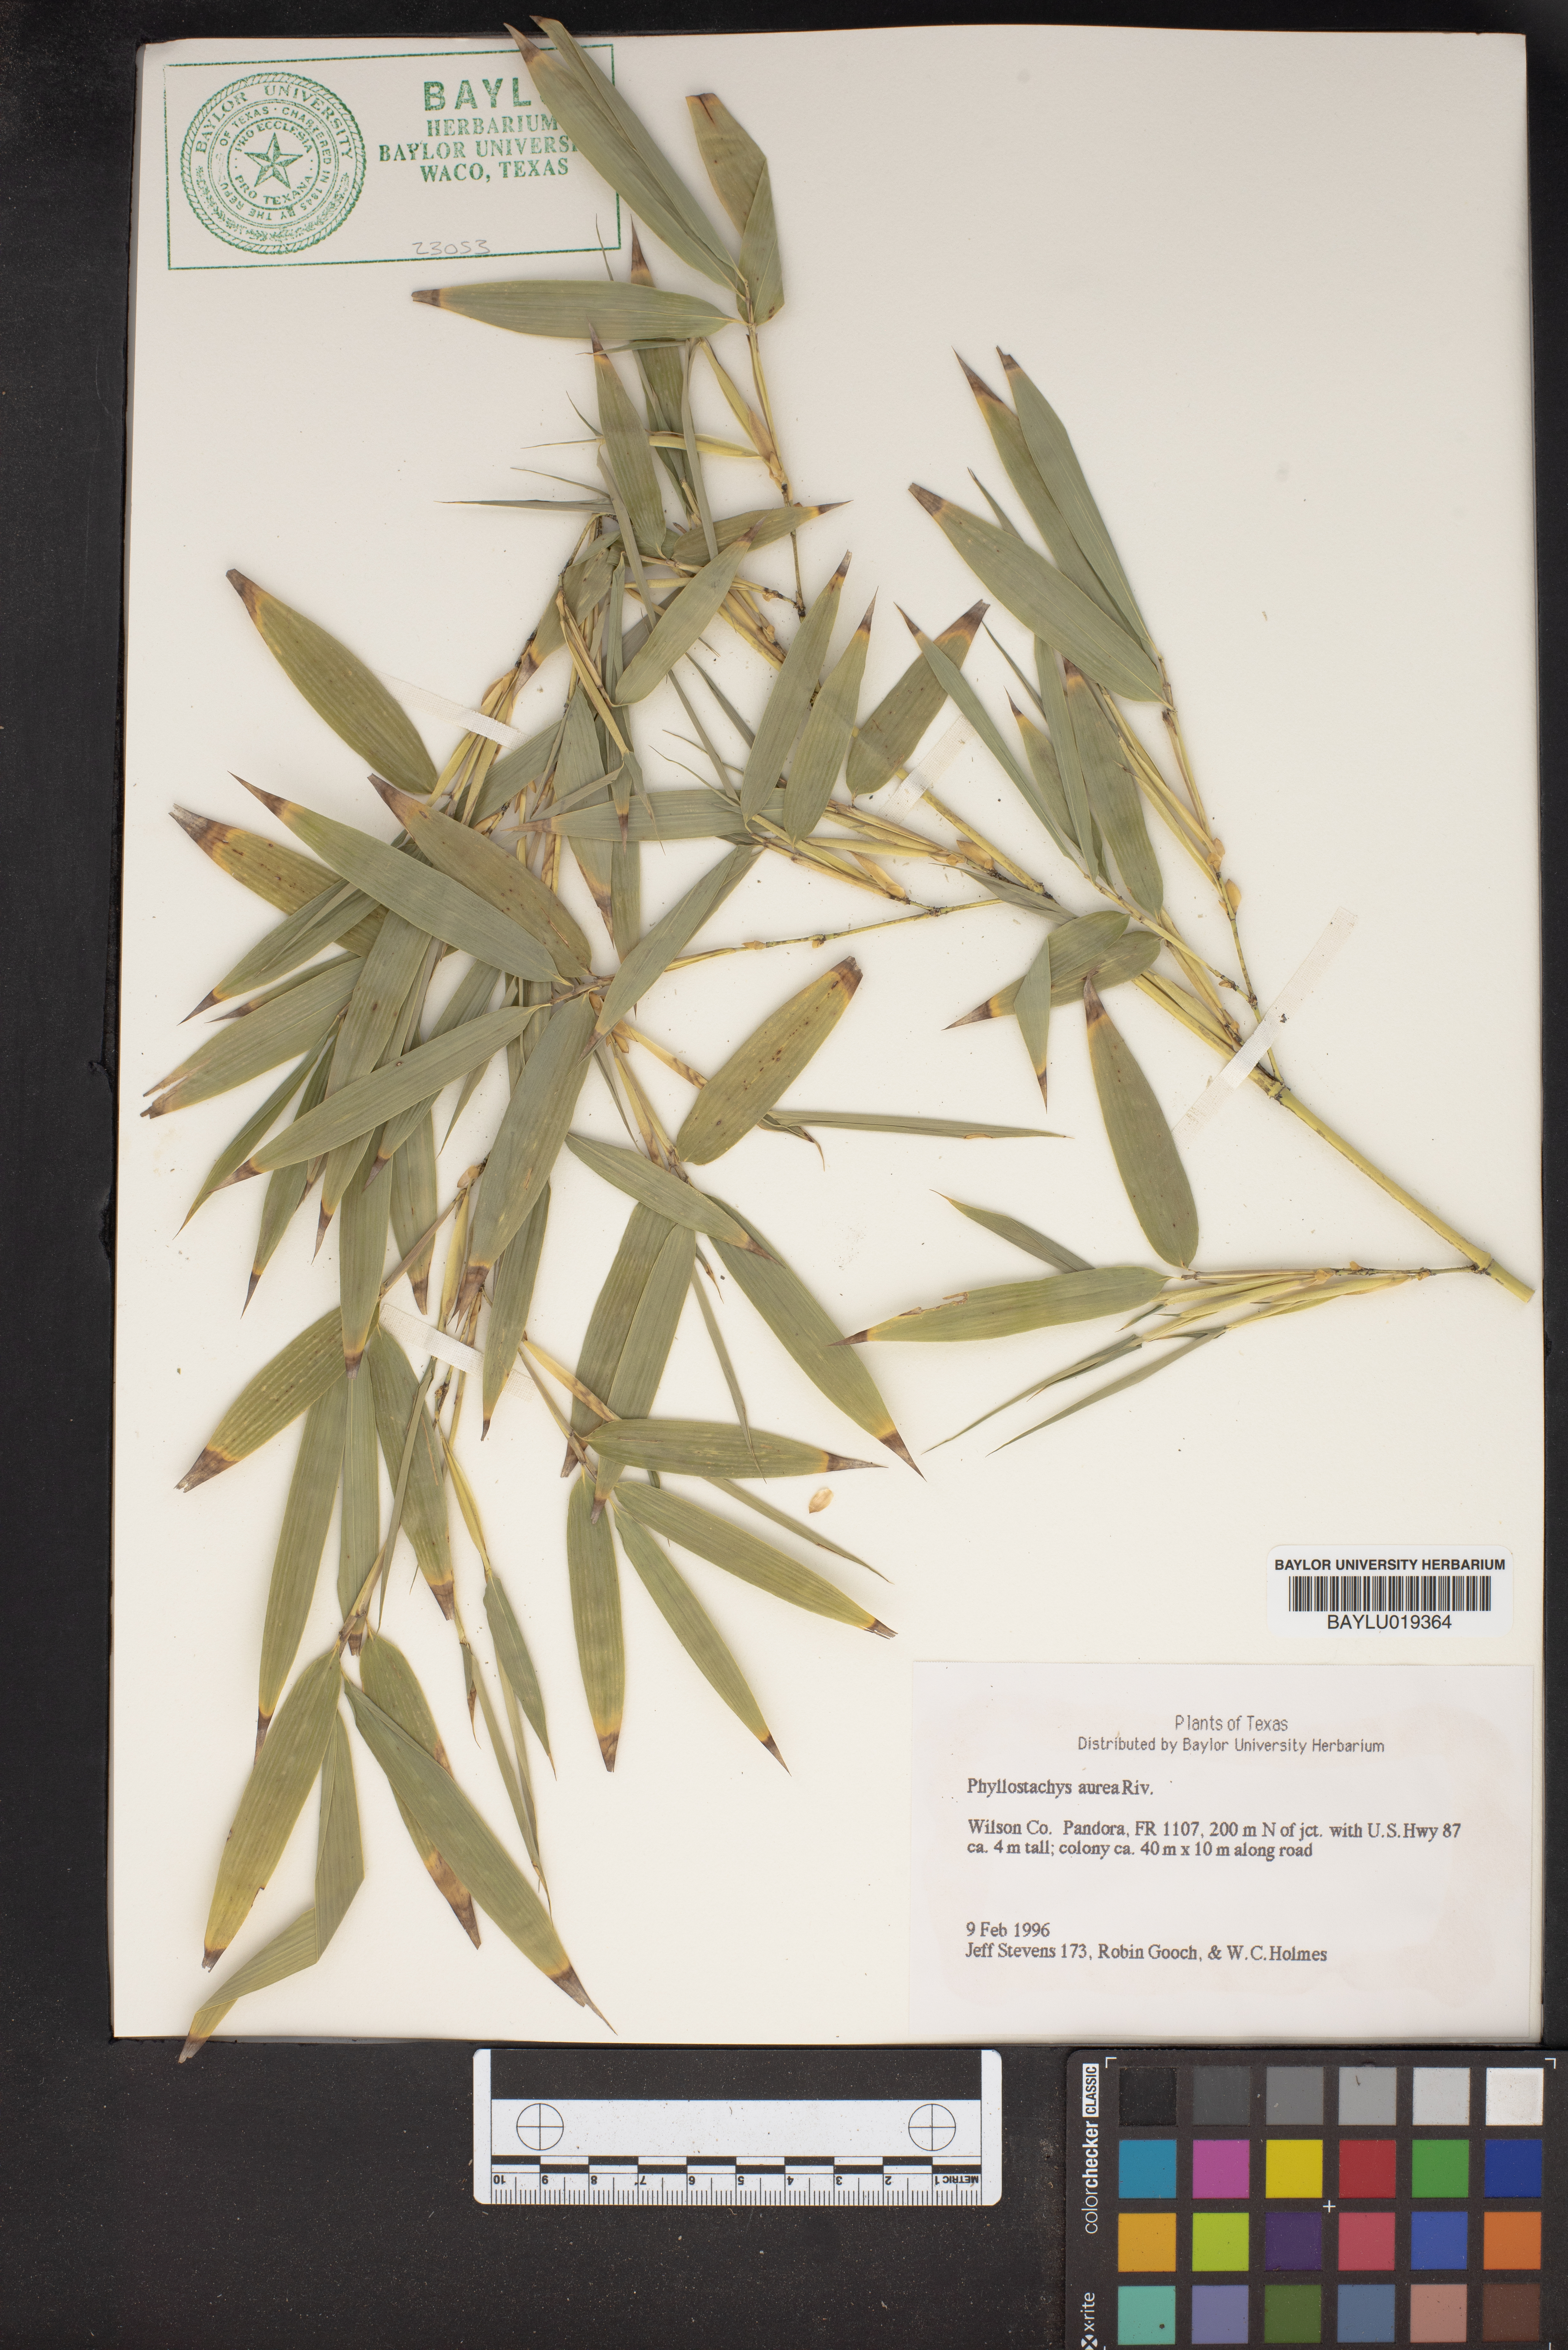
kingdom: Plantae
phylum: Tracheophyta
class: Liliopsida
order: Poales
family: Poaceae
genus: Phyllostachys
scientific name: Phyllostachys aurea
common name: Golden bamboo
